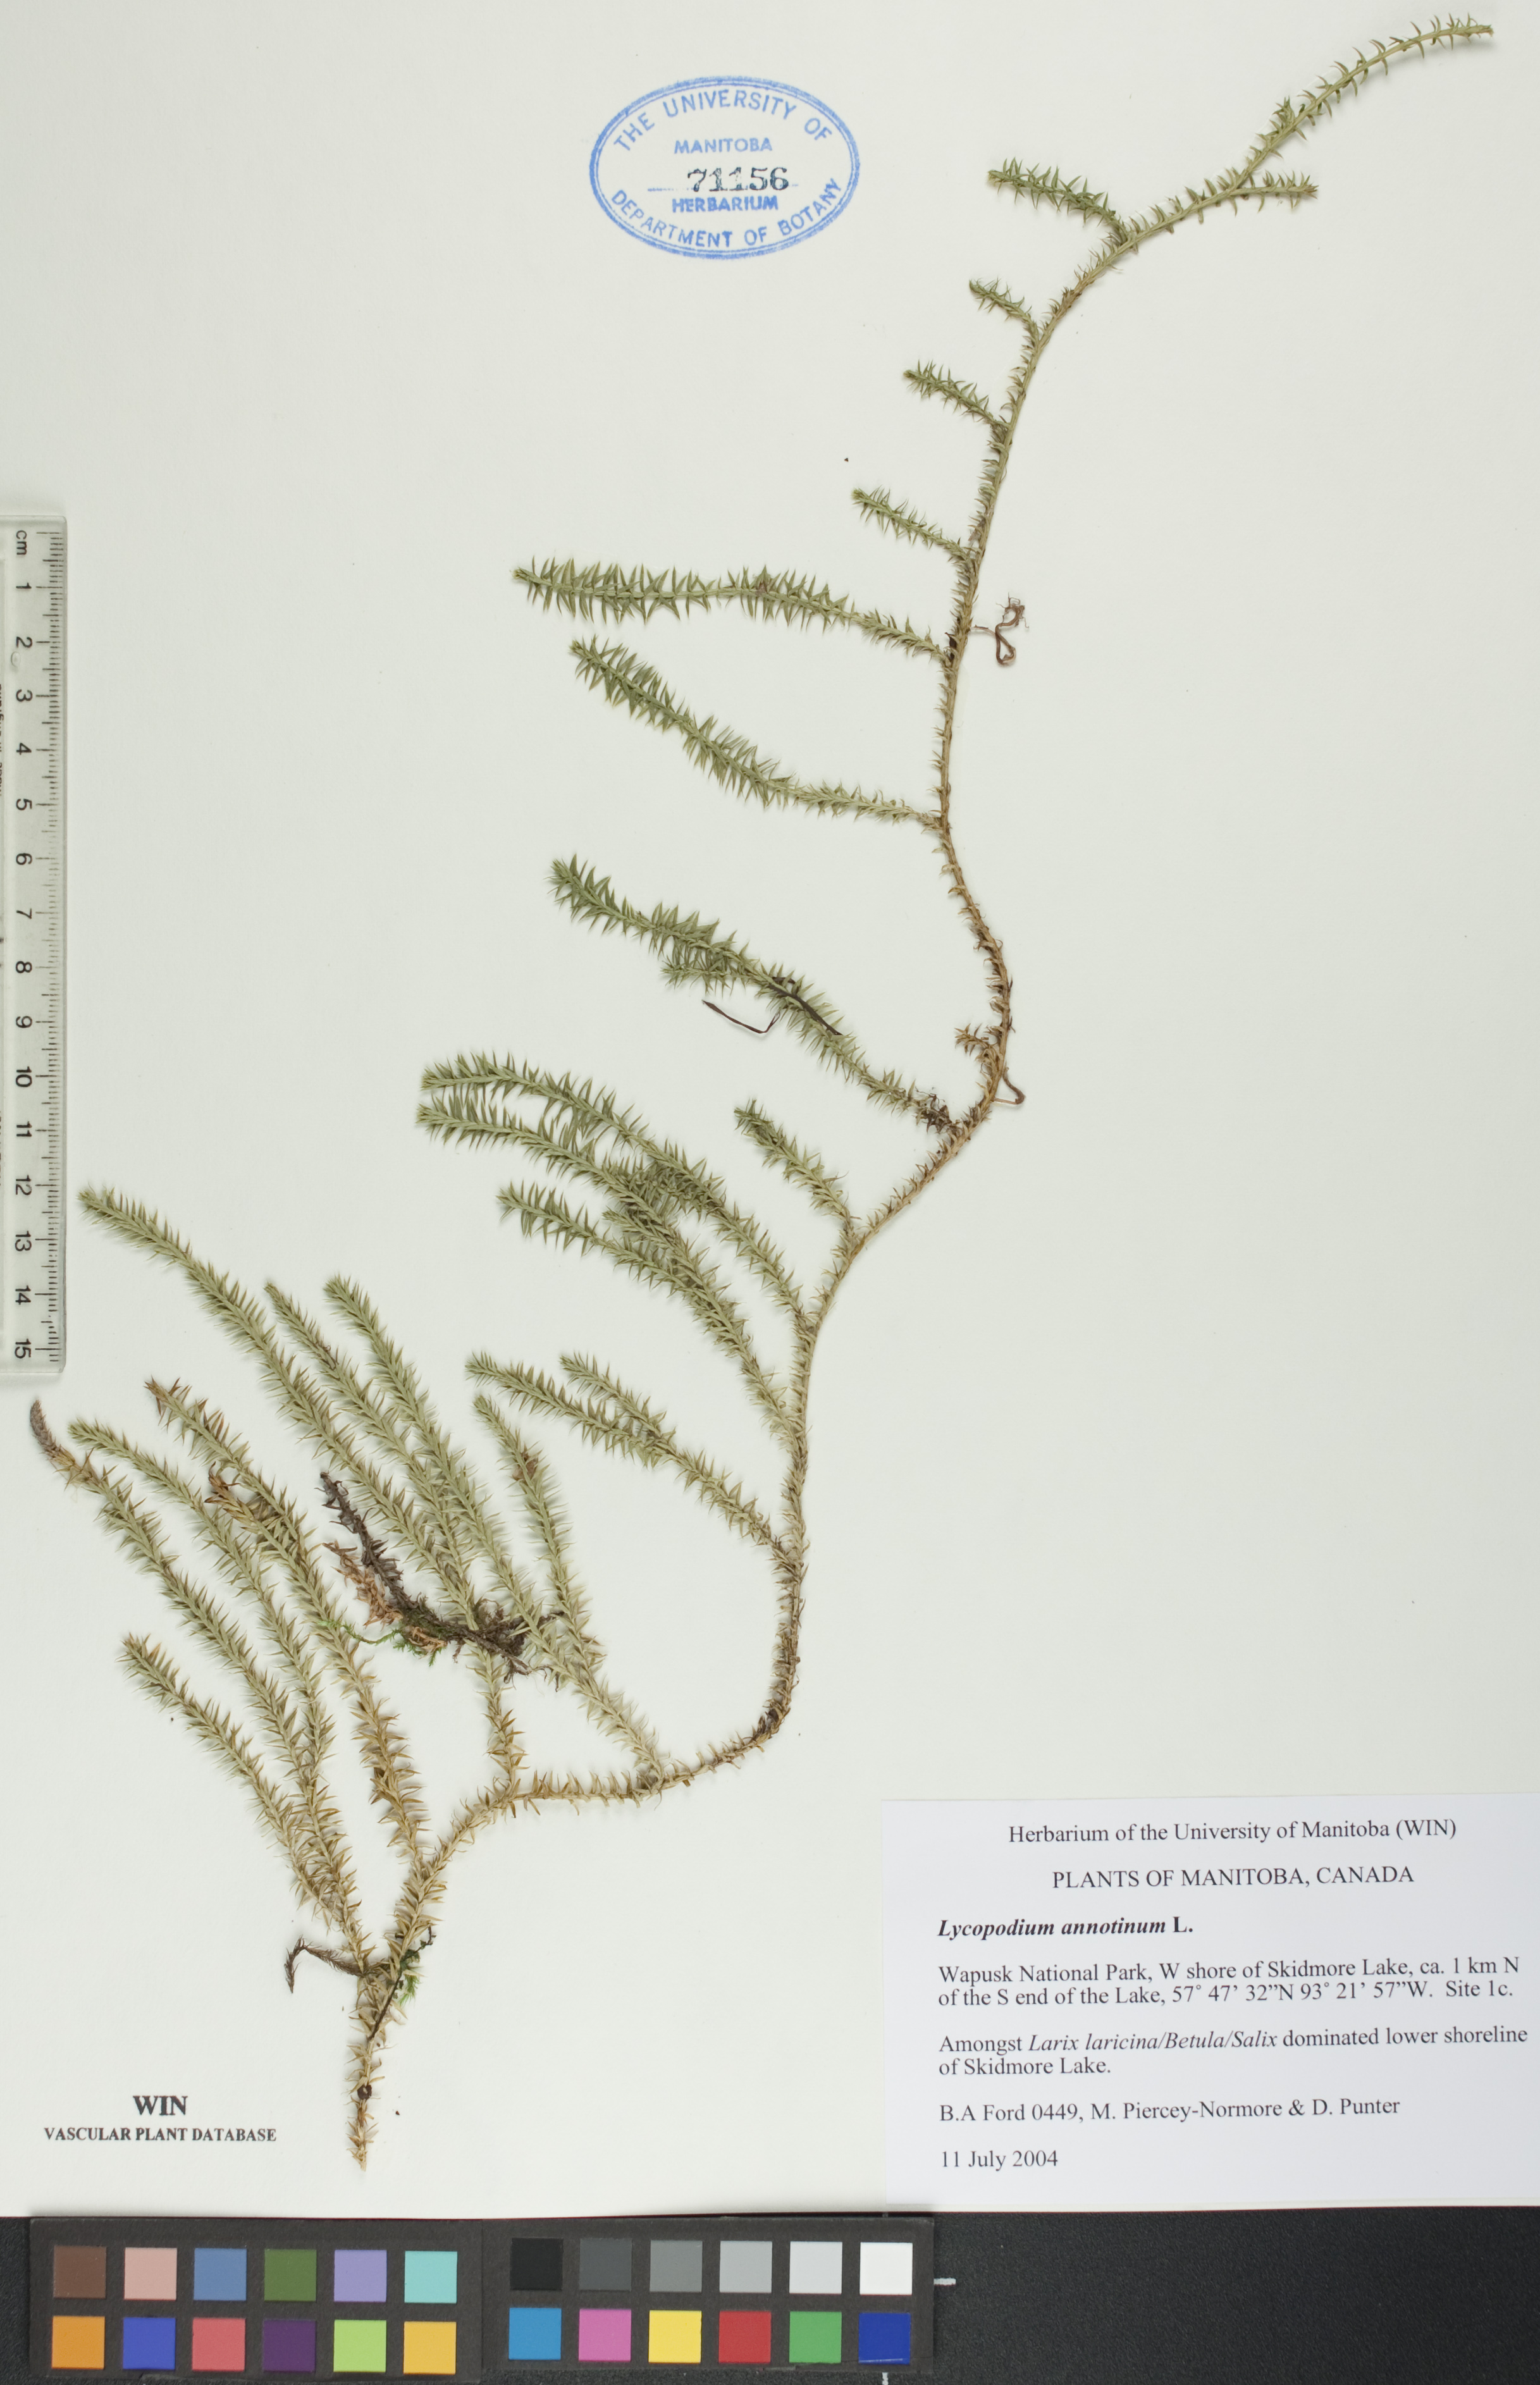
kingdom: Plantae
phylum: Tracheophyta
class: Lycopodiopsida
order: Lycopodiales
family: Lycopodiaceae
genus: Spinulum
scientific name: Spinulum annotinum
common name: Interrupted club-moss
